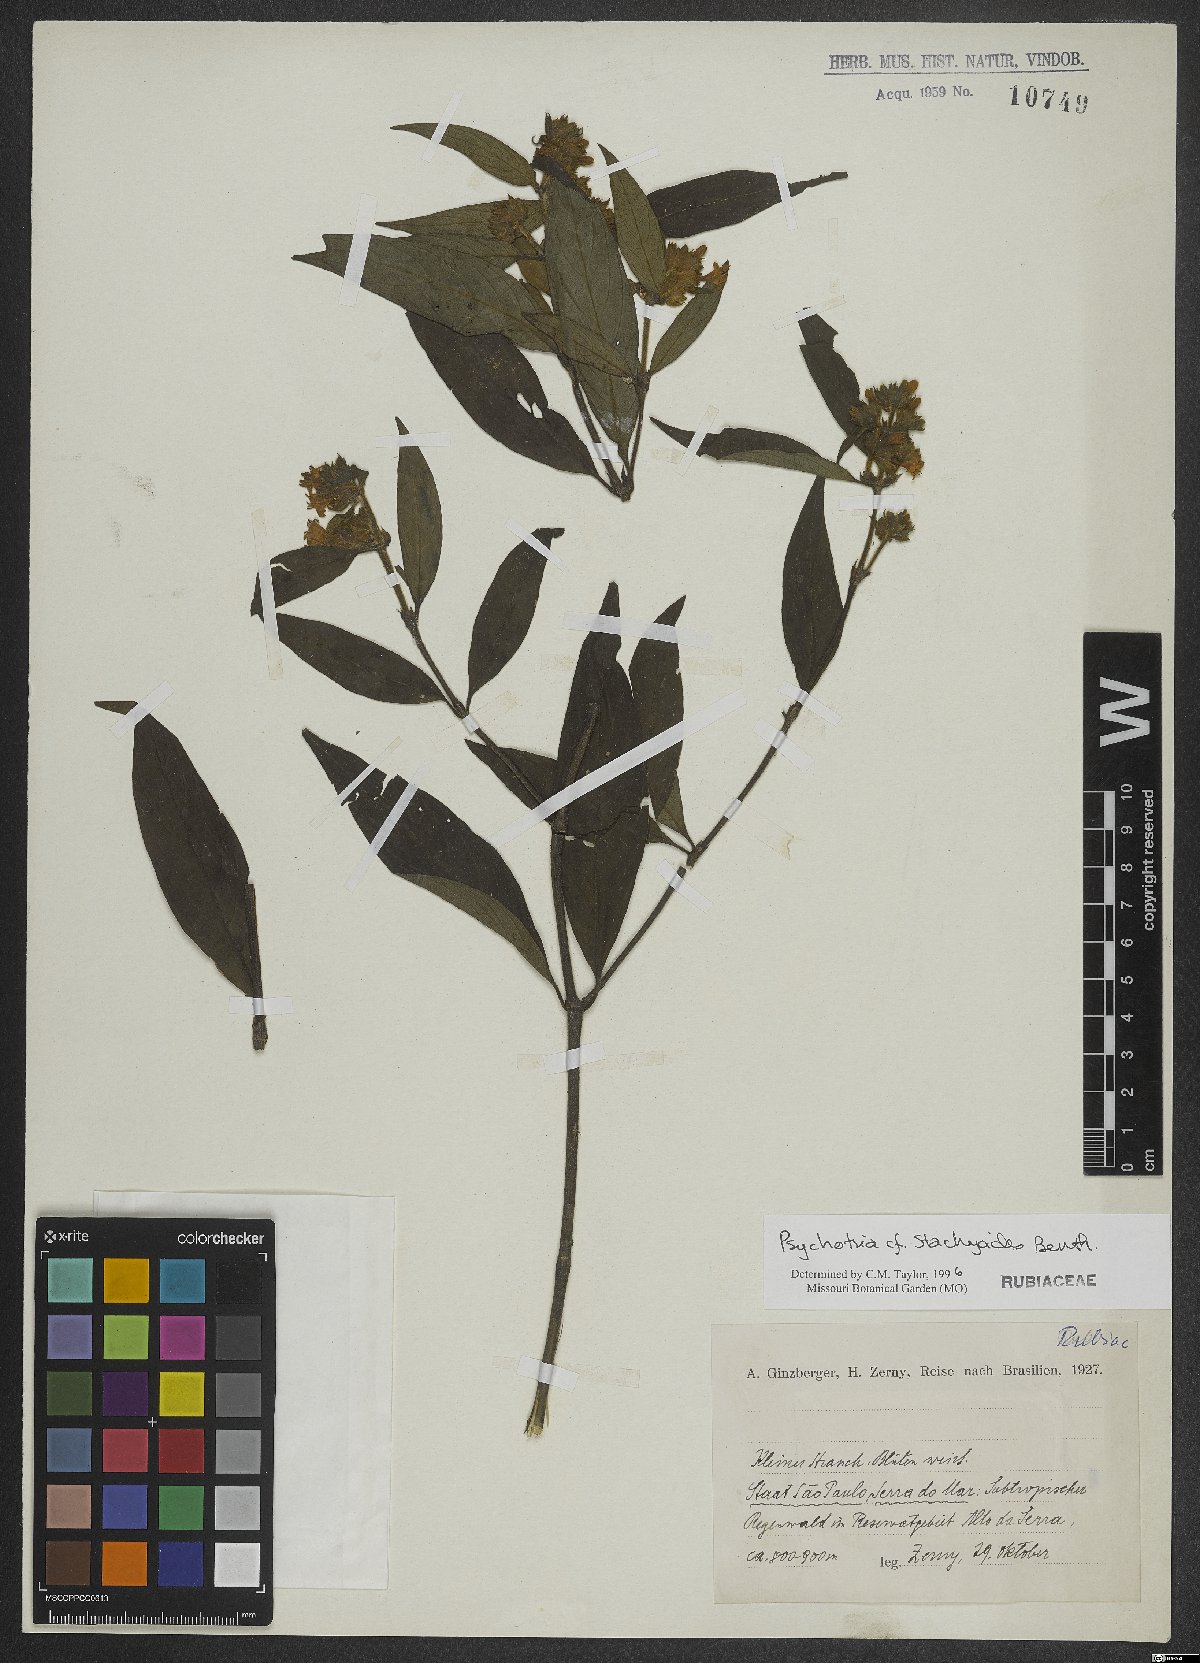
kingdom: Plantae
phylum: Tracheophyta
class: Magnoliopsida
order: Gentianales
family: Rubiaceae
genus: Psychotria
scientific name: Psychotria stachyoides
